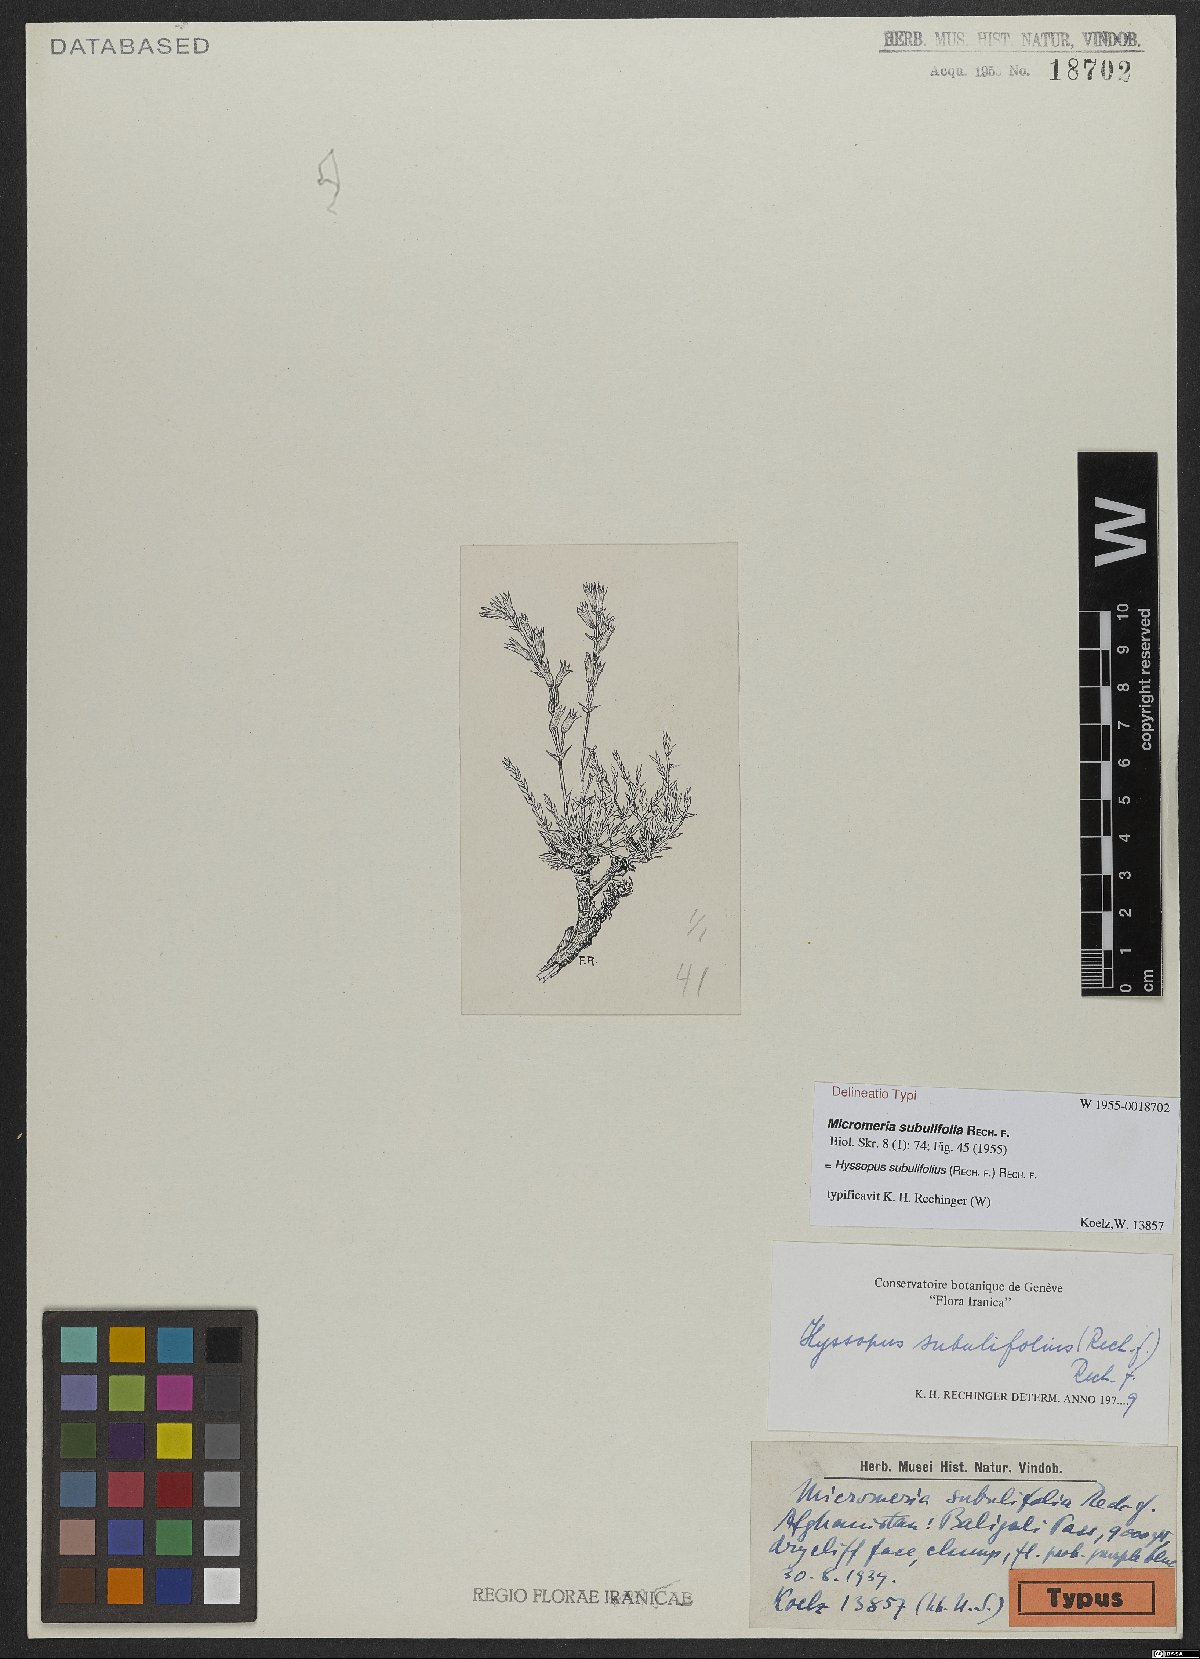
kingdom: Plantae
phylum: Tracheophyta
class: Magnoliopsida
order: Lamiales
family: Lamiaceae
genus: Hyssopus
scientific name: Hyssopus subulifolius
